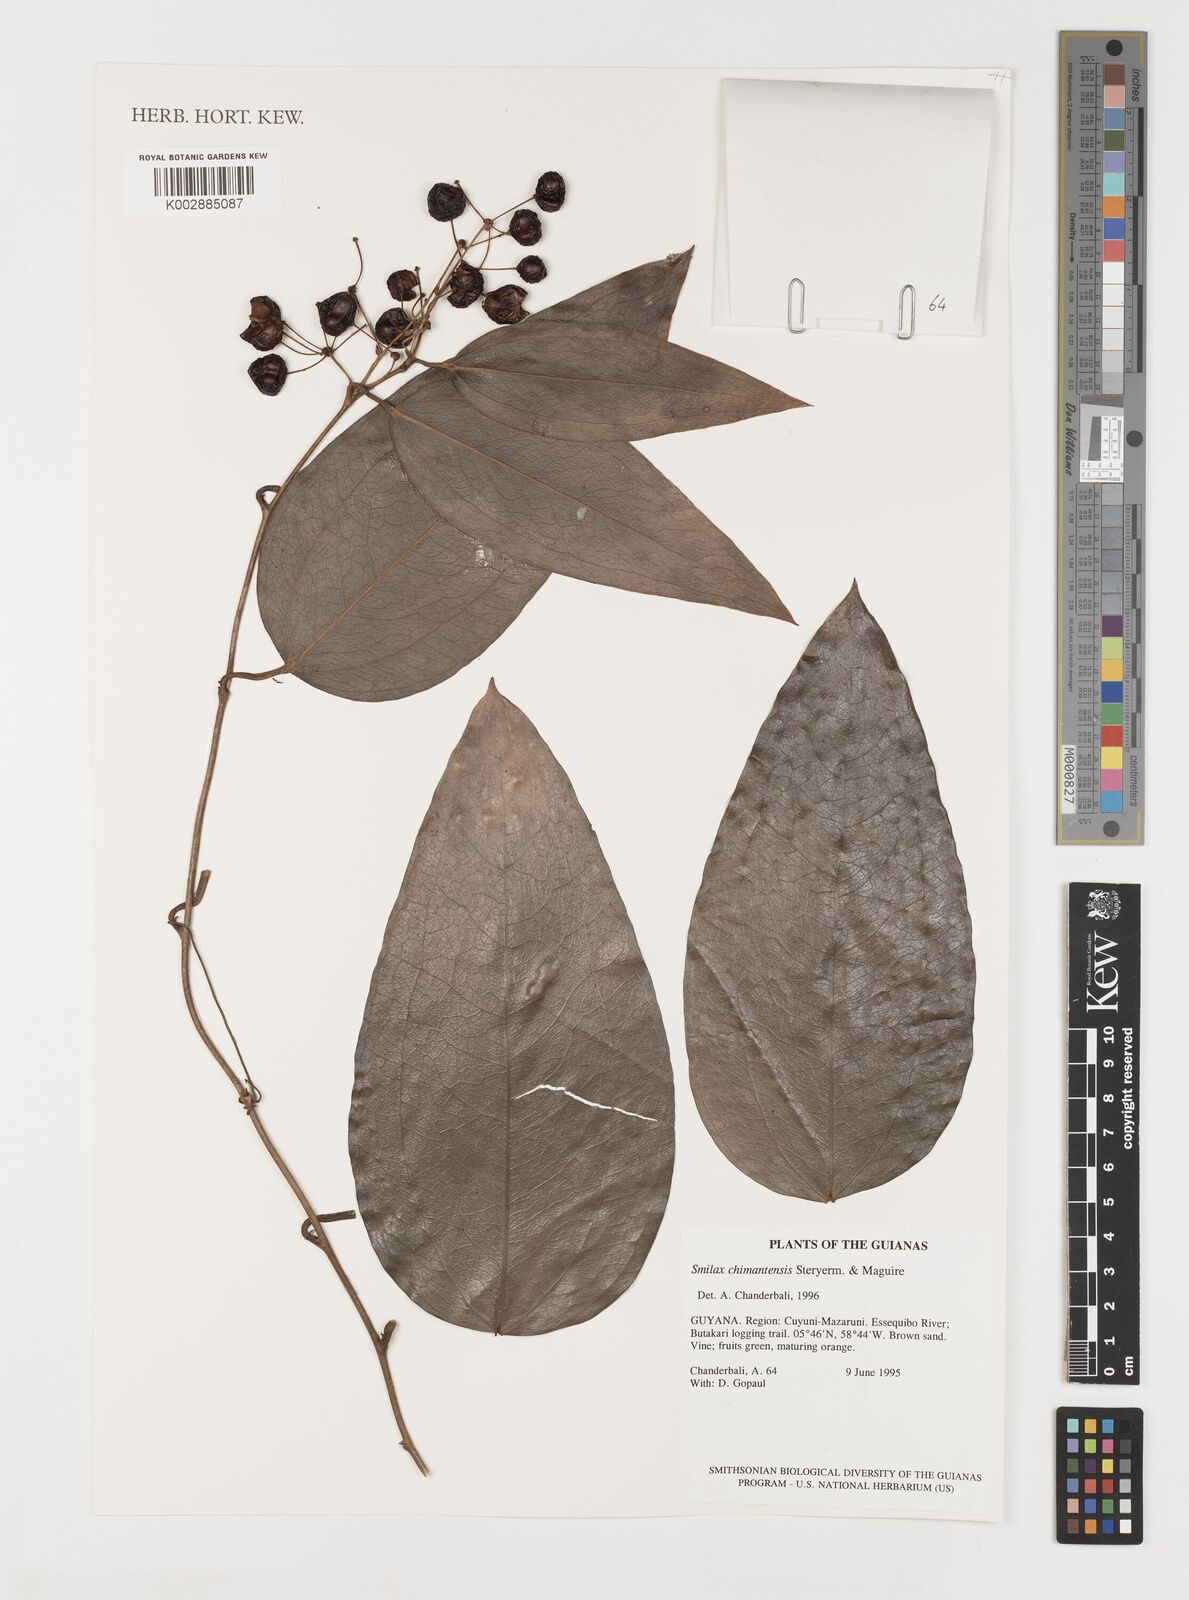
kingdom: Plantae
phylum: Tracheophyta
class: Liliopsida
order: Liliales
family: Smilacaceae
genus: Smilax
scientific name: Smilax solanifolia
